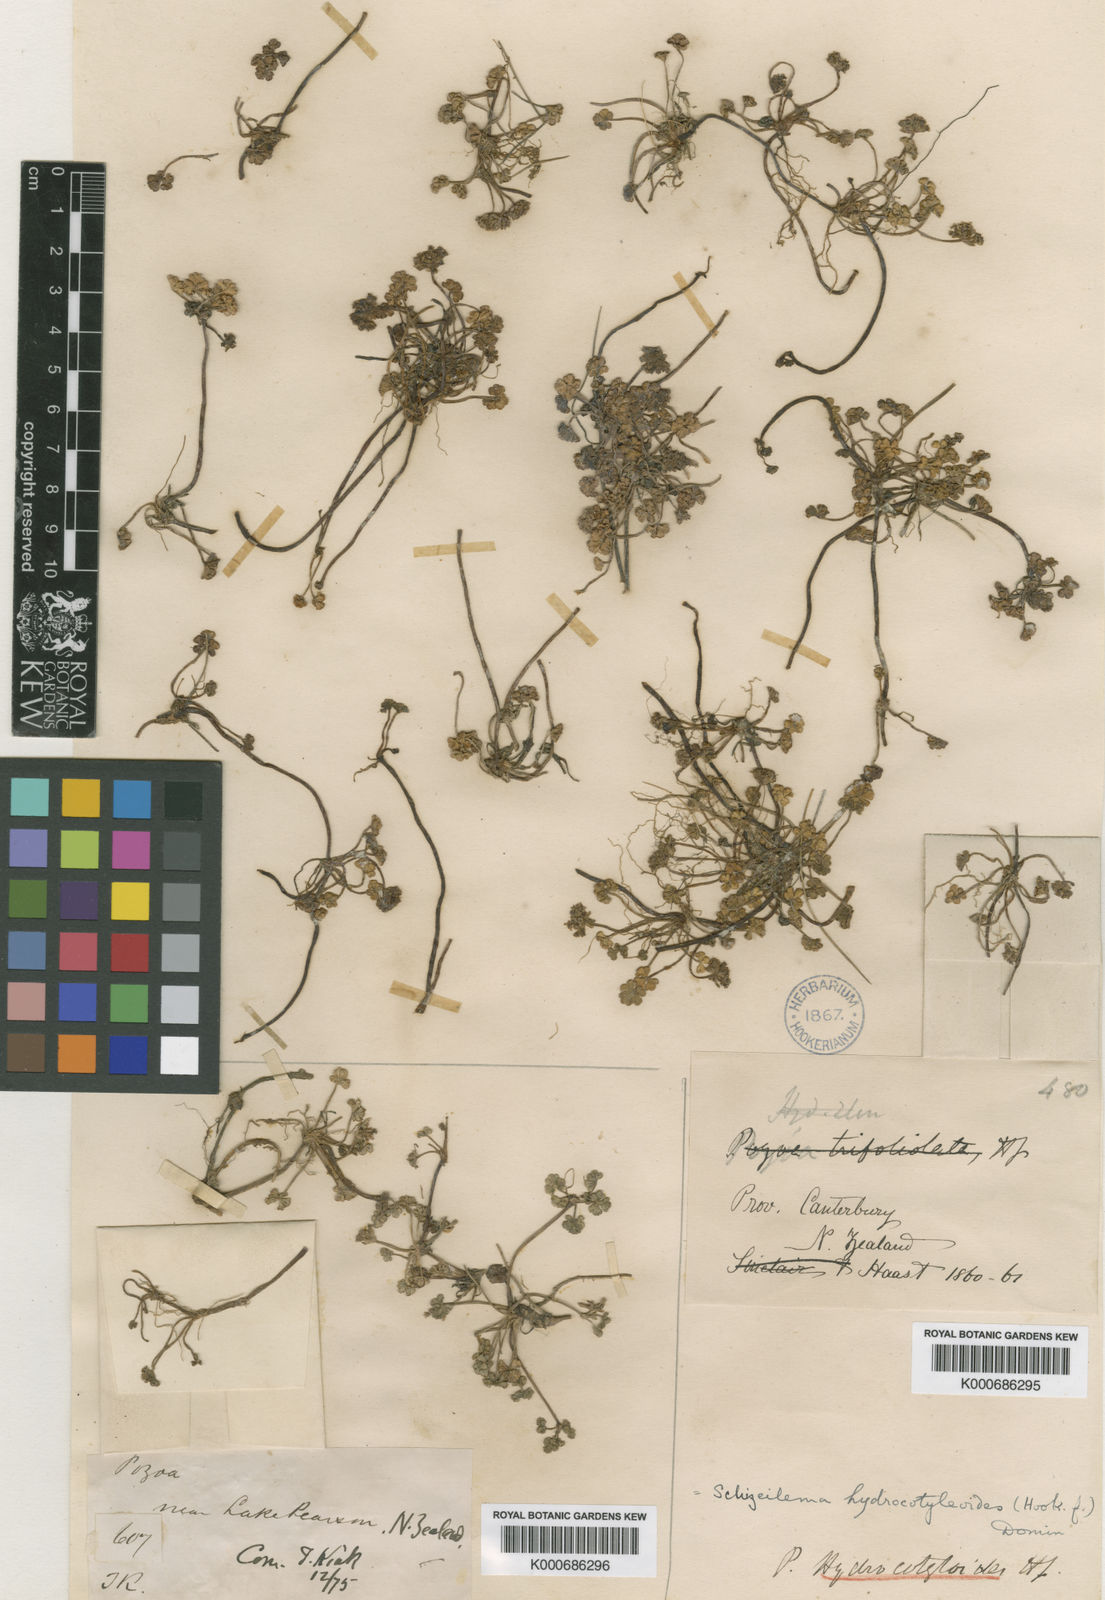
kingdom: Plantae
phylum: Tracheophyta
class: Magnoliopsida
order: Apiales
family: Apiaceae
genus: Azorella
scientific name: Azorella
